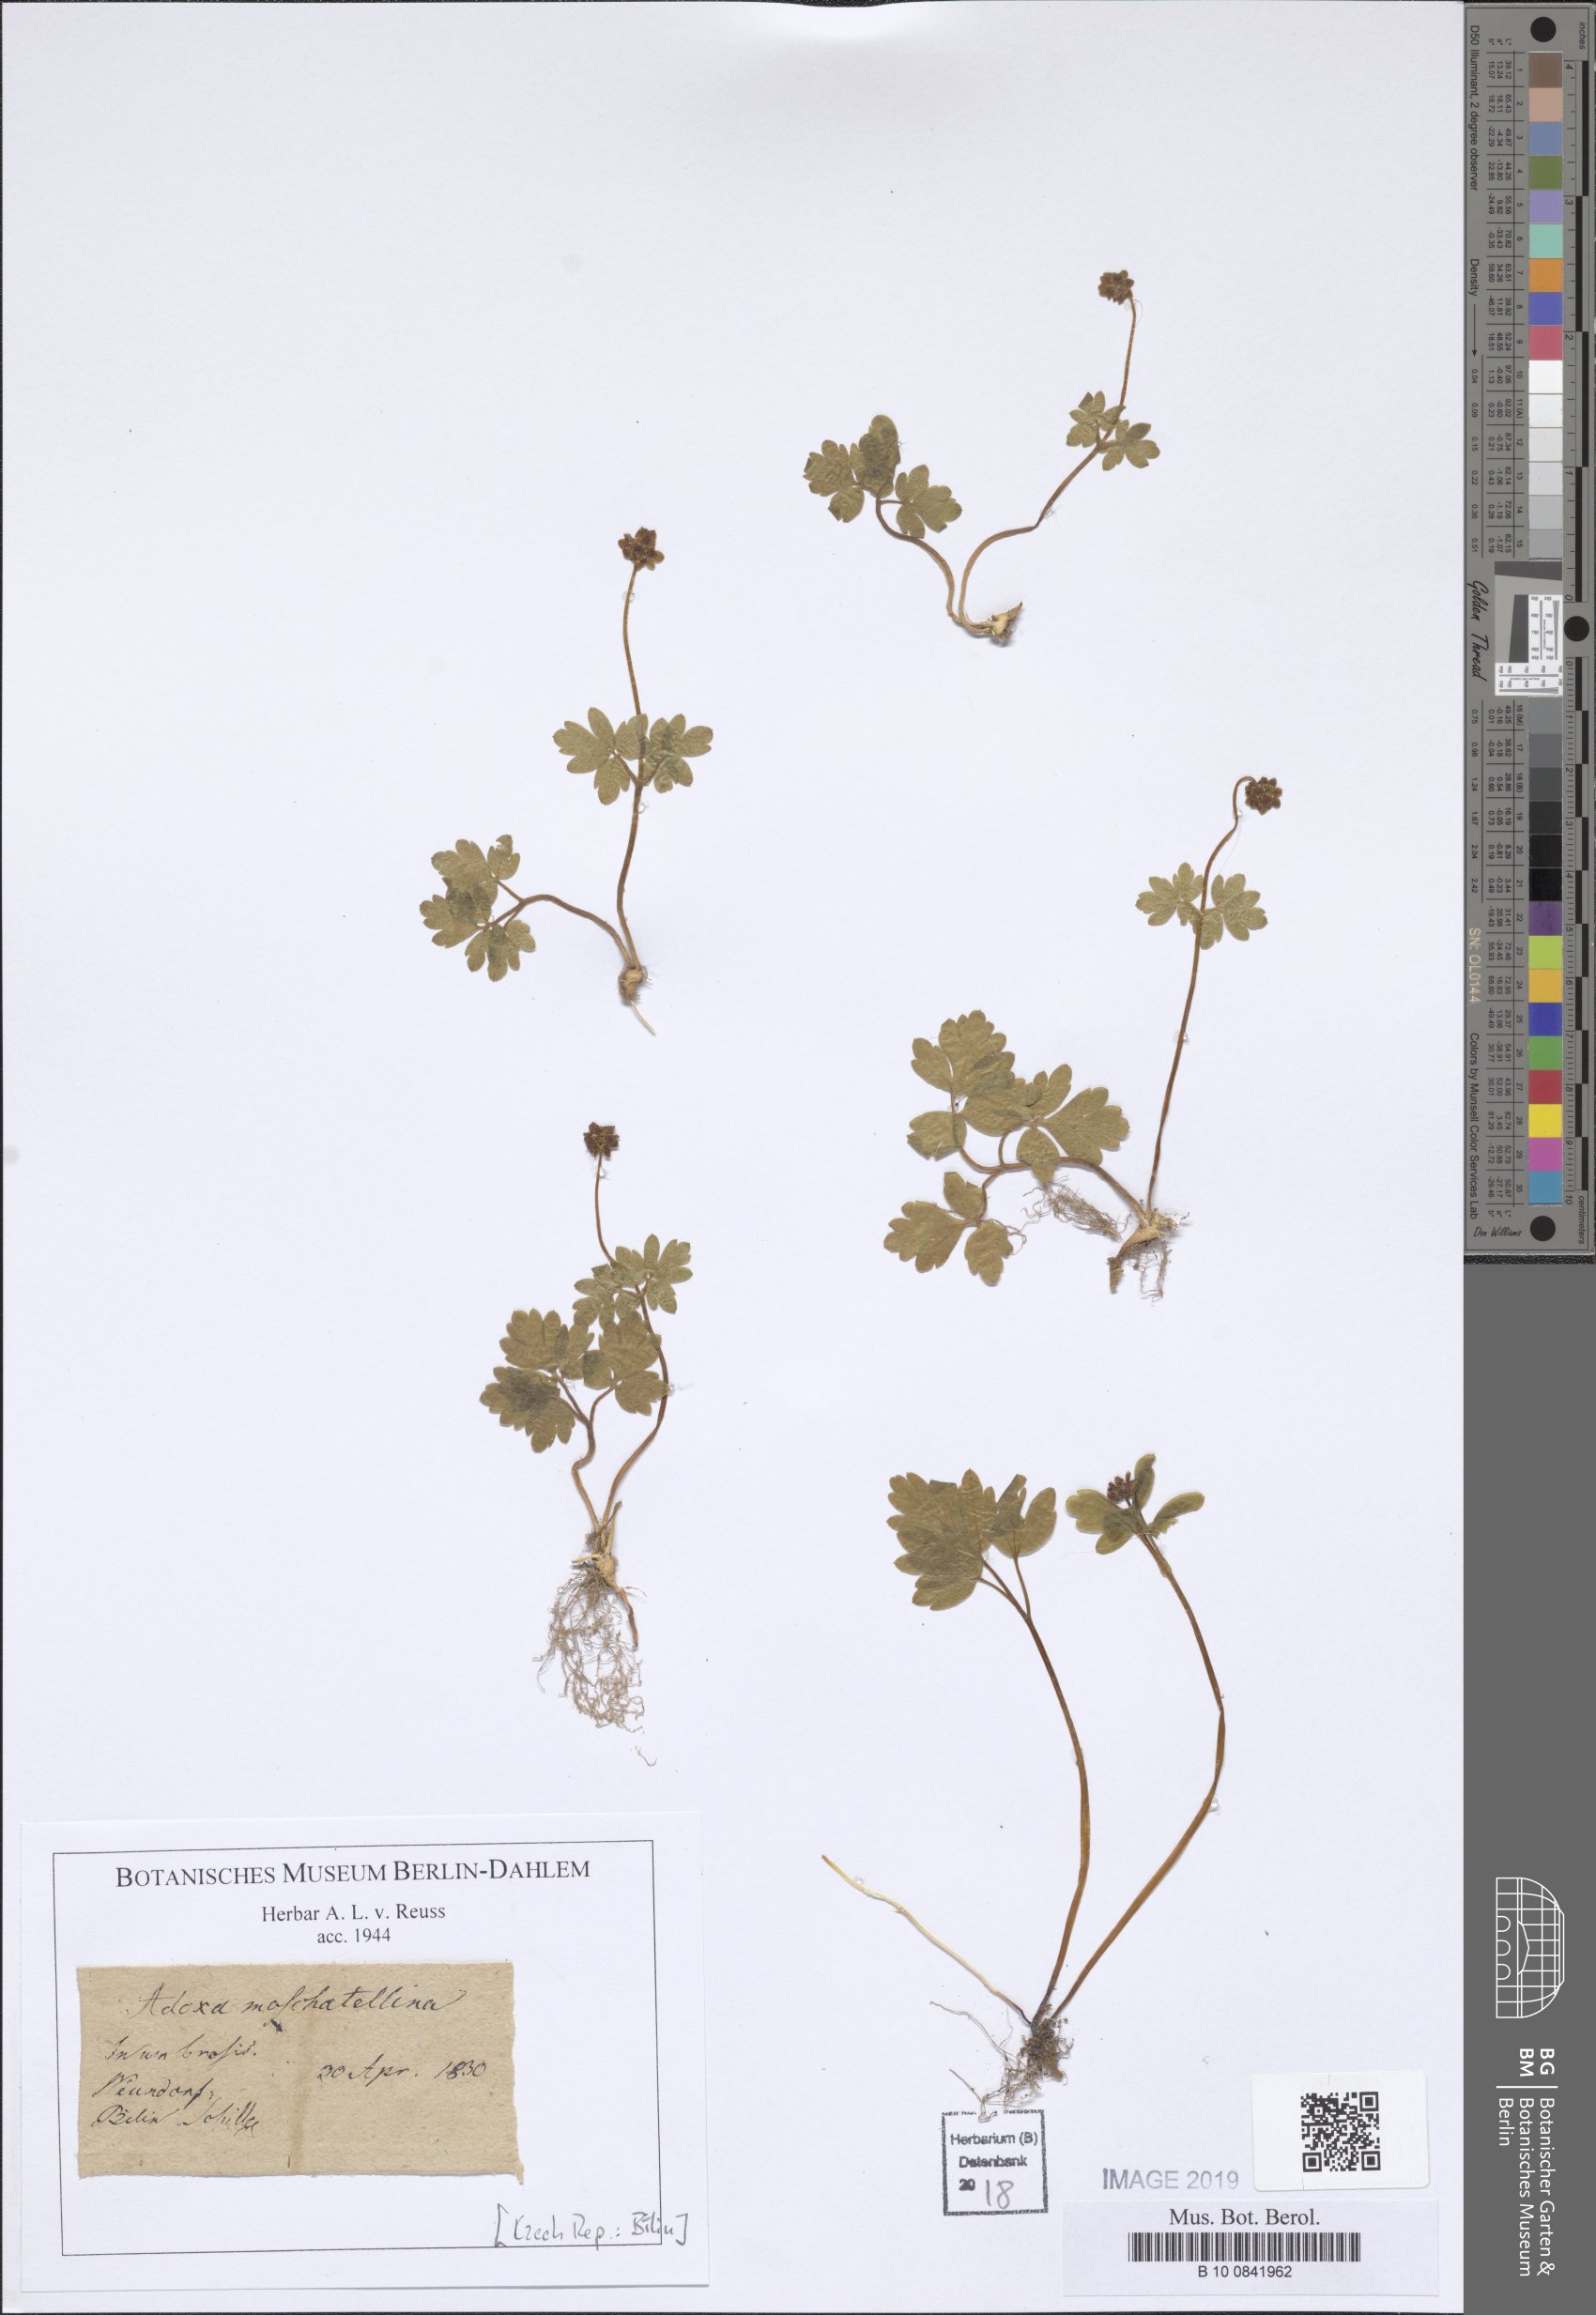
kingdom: Plantae
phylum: Tracheophyta
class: Magnoliopsida
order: Dipsacales
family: Viburnaceae
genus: Adoxa
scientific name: Adoxa moschatellina
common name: Moschatel
